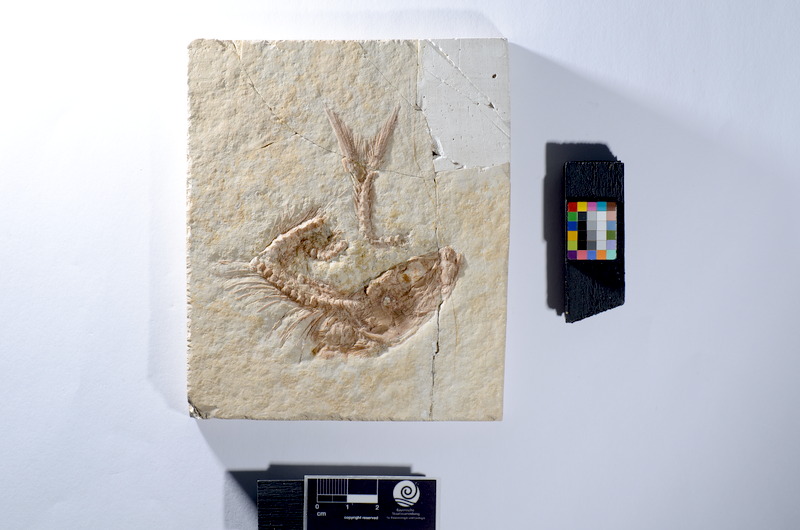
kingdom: Animalia
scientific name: Animalia
